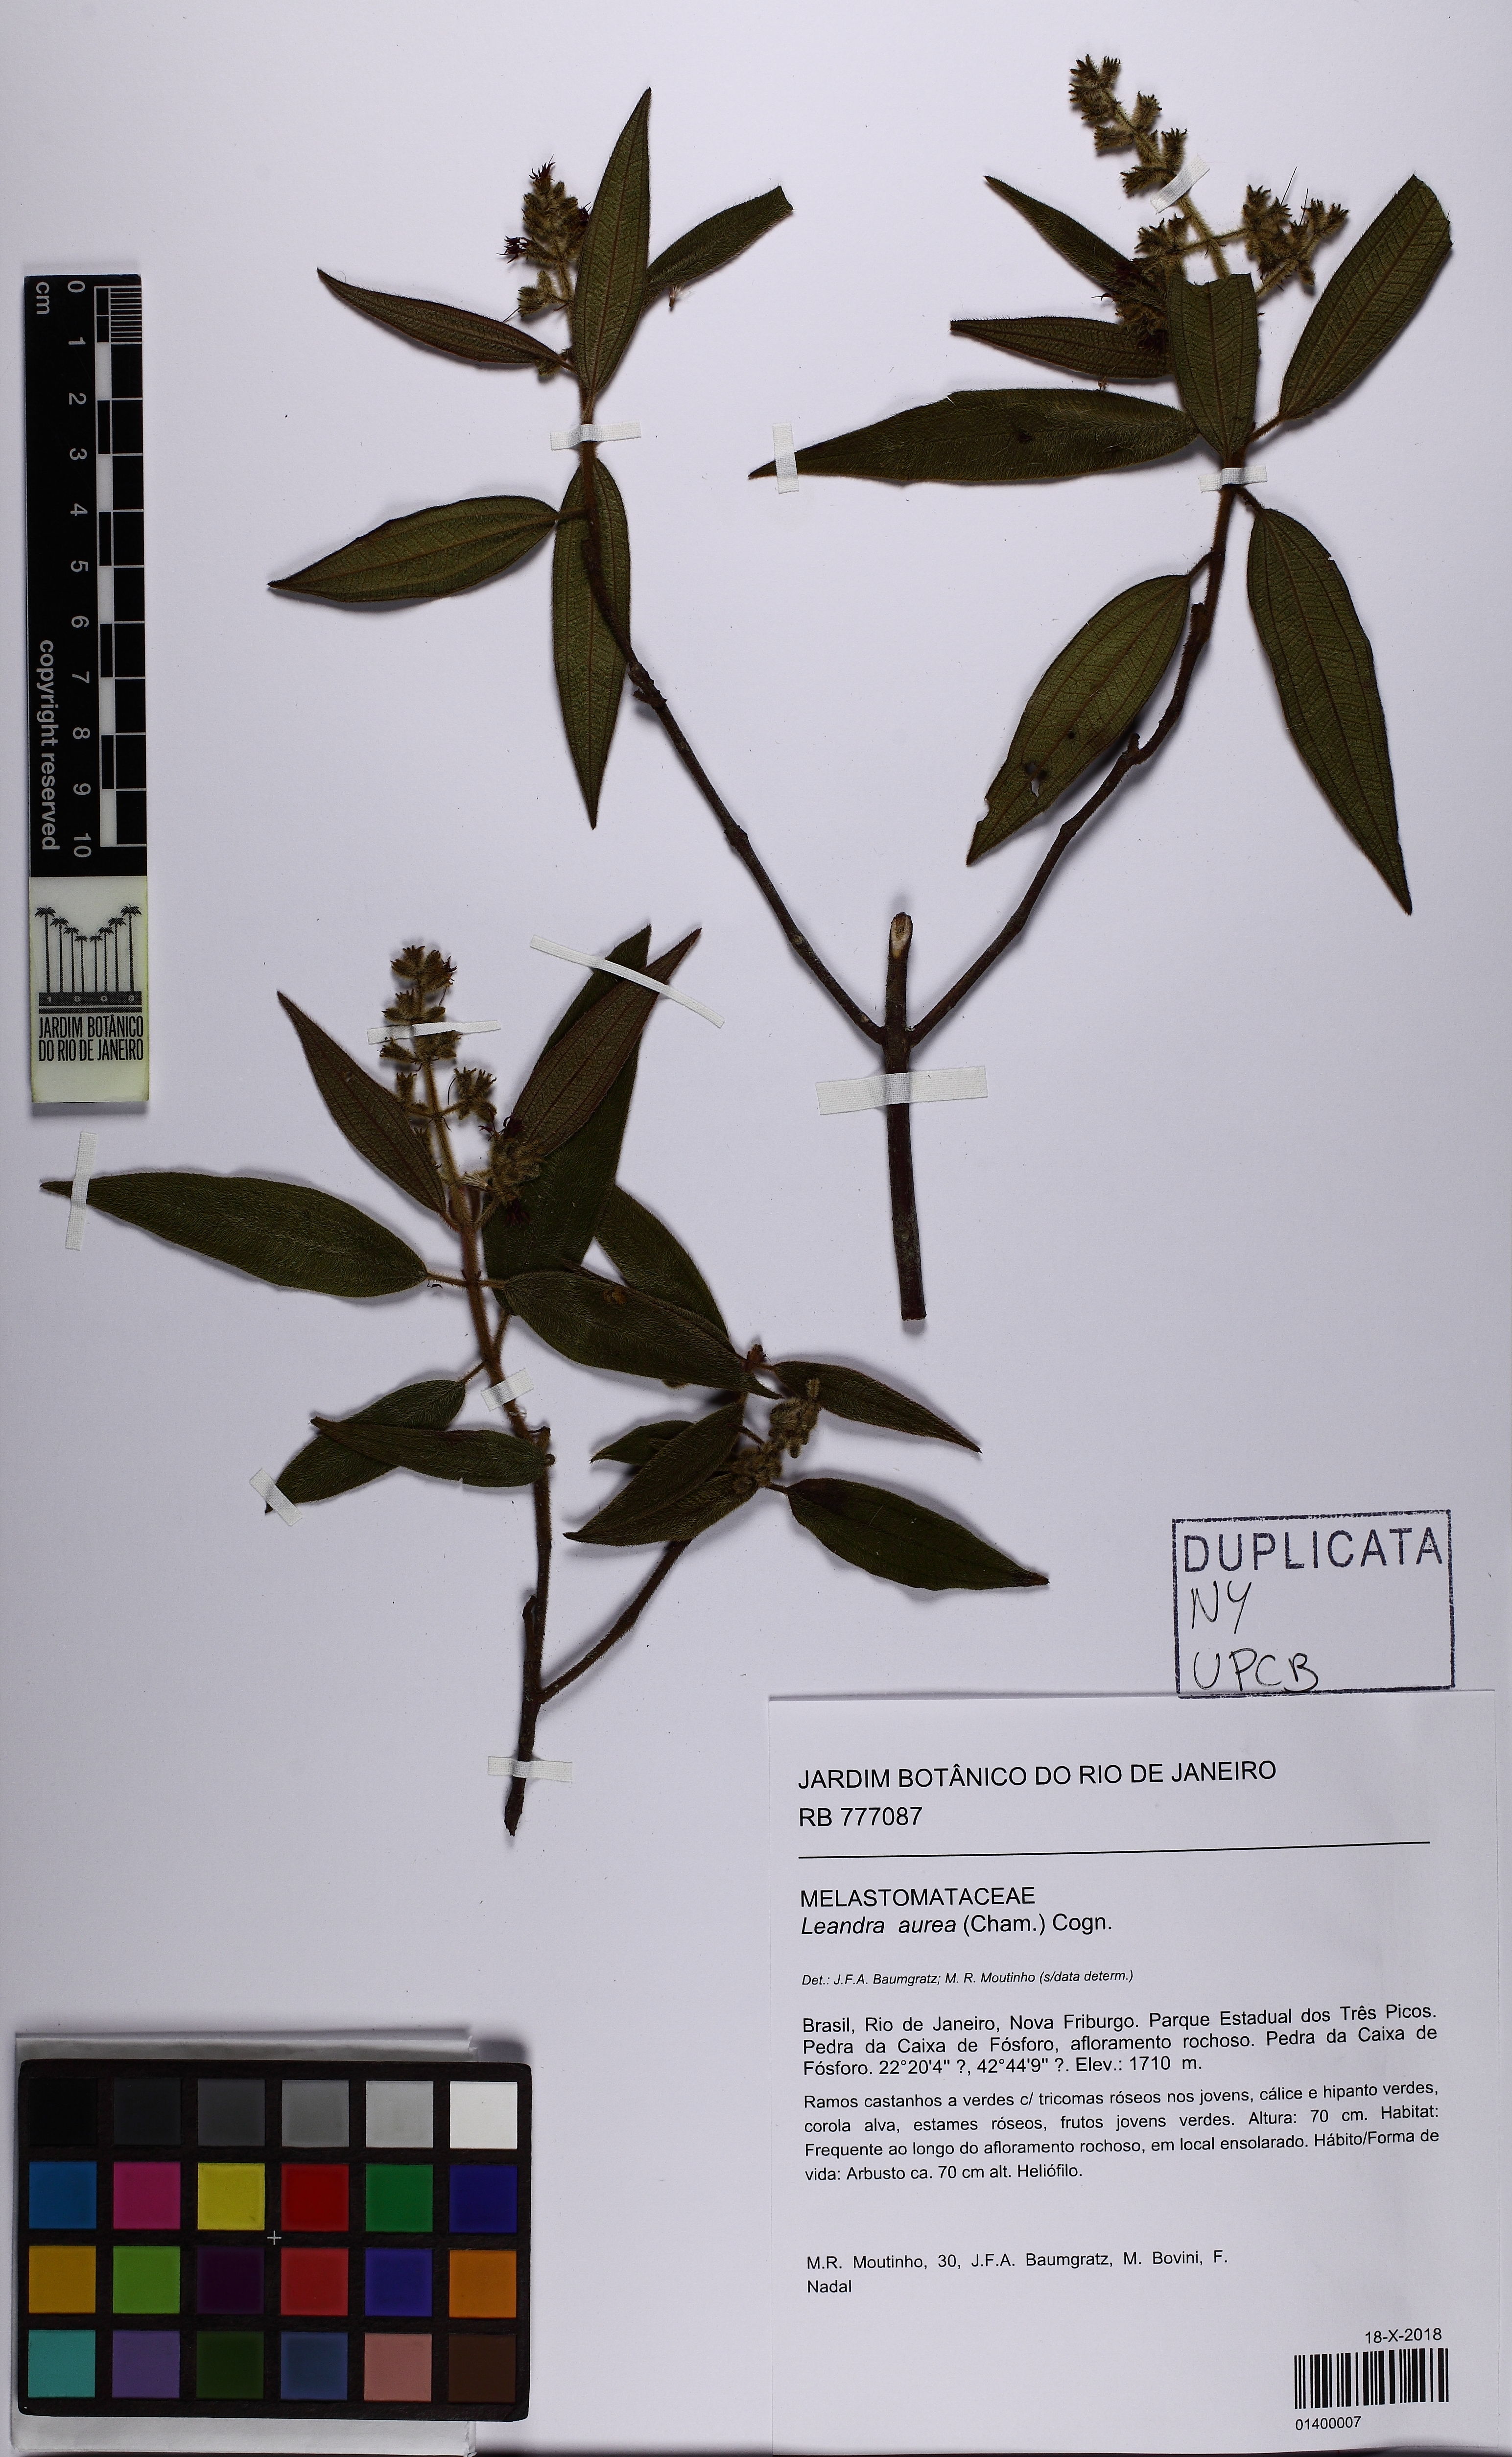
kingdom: Plantae
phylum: Tracheophyta
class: Magnoliopsida
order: Myrtales
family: Melastomataceae
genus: Miconia
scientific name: Miconia auricoma
